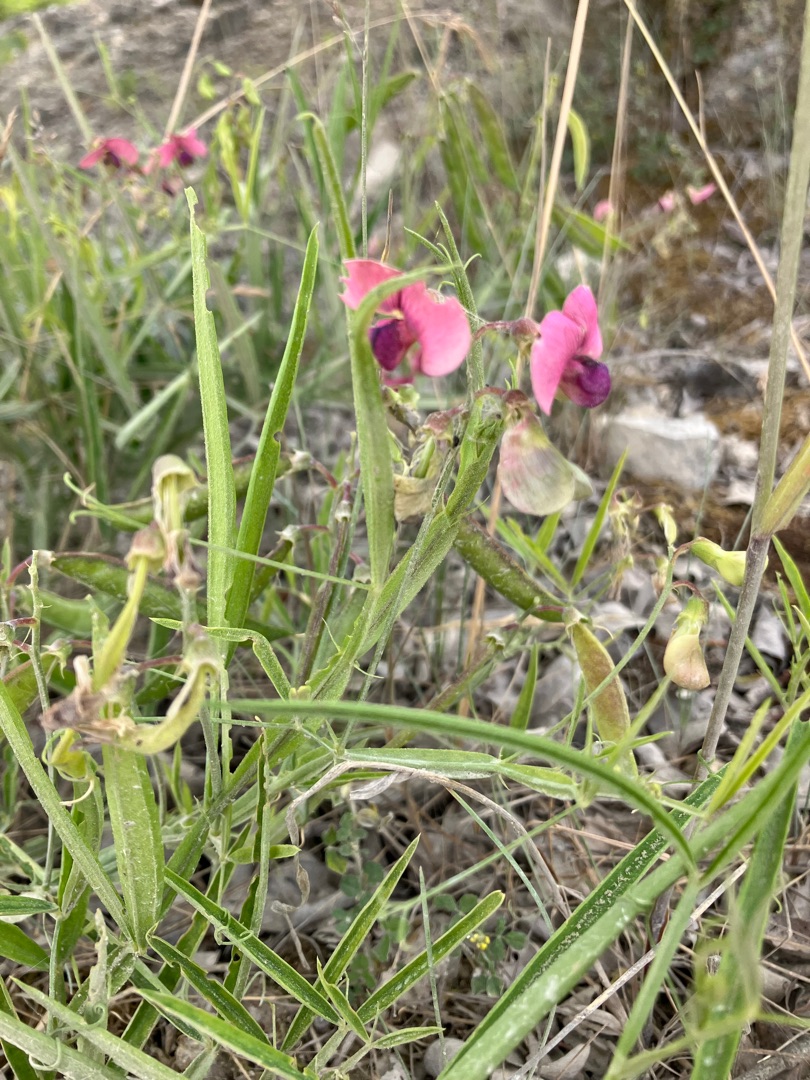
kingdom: Plantae
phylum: Tracheophyta
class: Magnoliopsida
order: Fabales
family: Fabaceae
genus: Lathyrus
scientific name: Lathyrus sylvestris
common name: Skov-fladbælg
